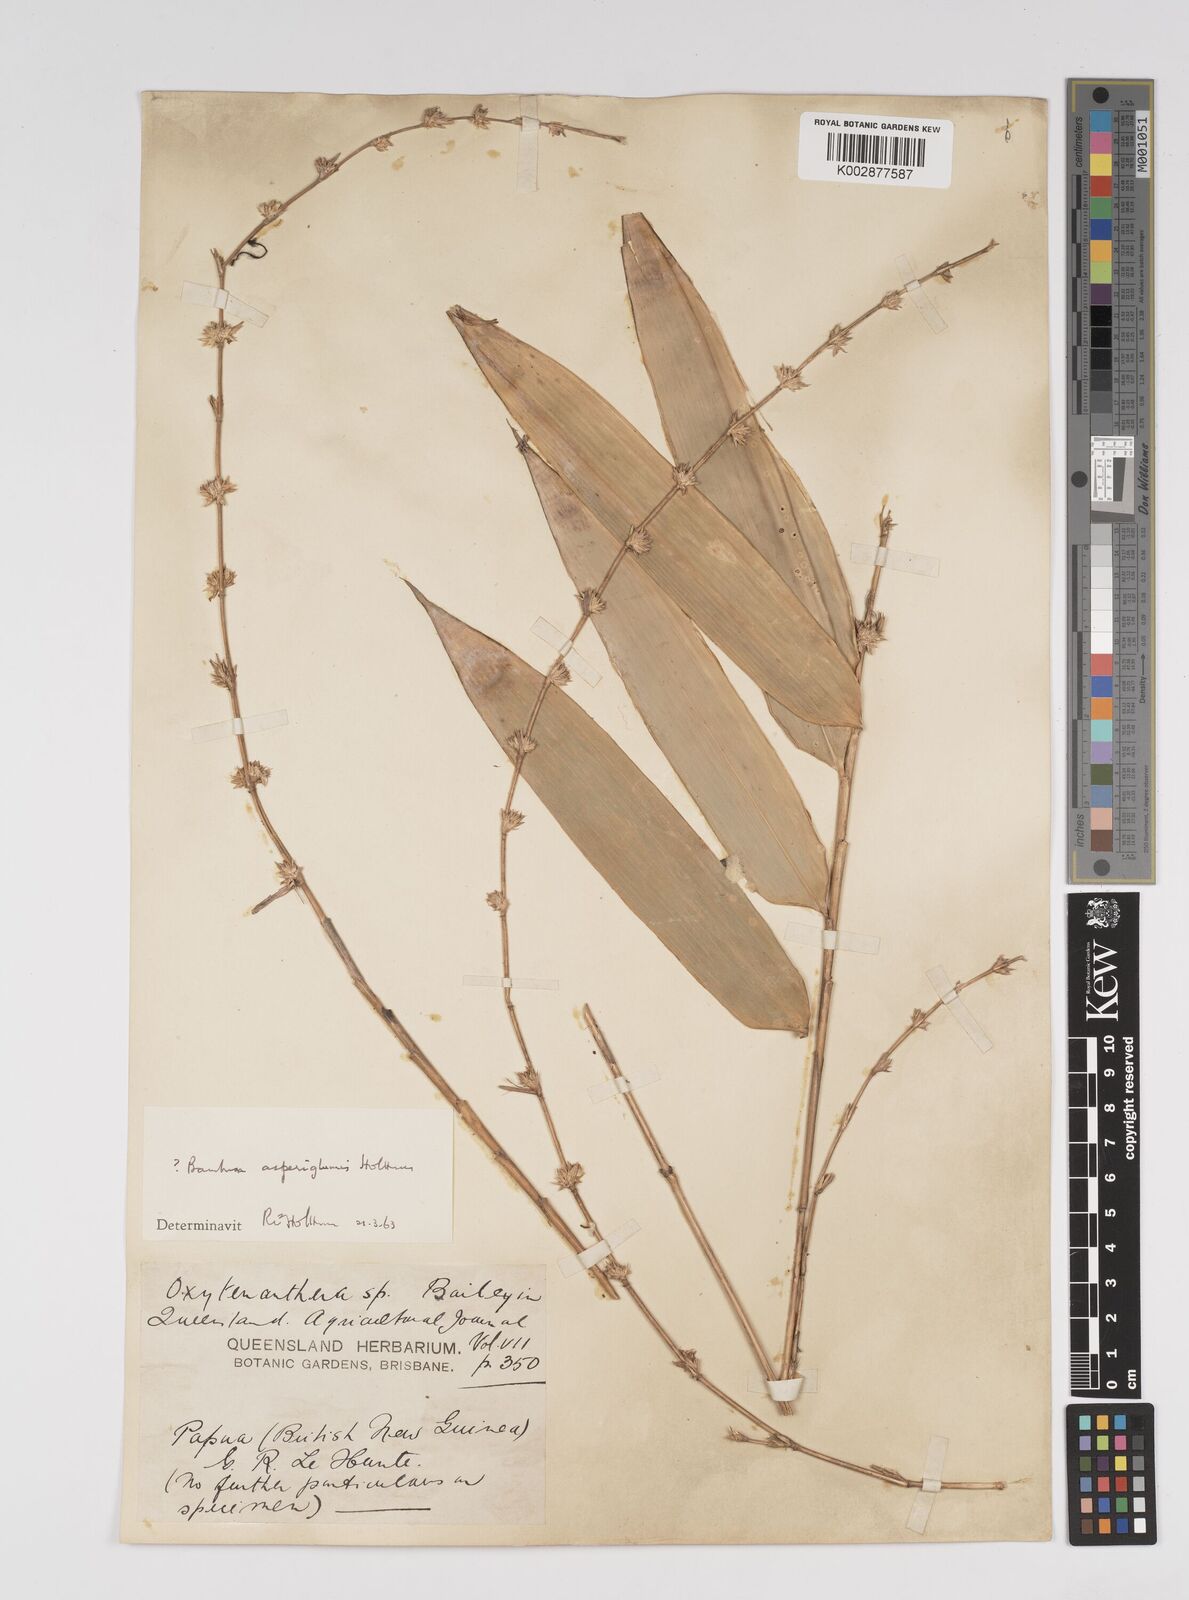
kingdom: Plantae
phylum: Tracheophyta
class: Liliopsida
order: Poales
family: Poaceae
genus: Bambusa
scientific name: Bambusa
